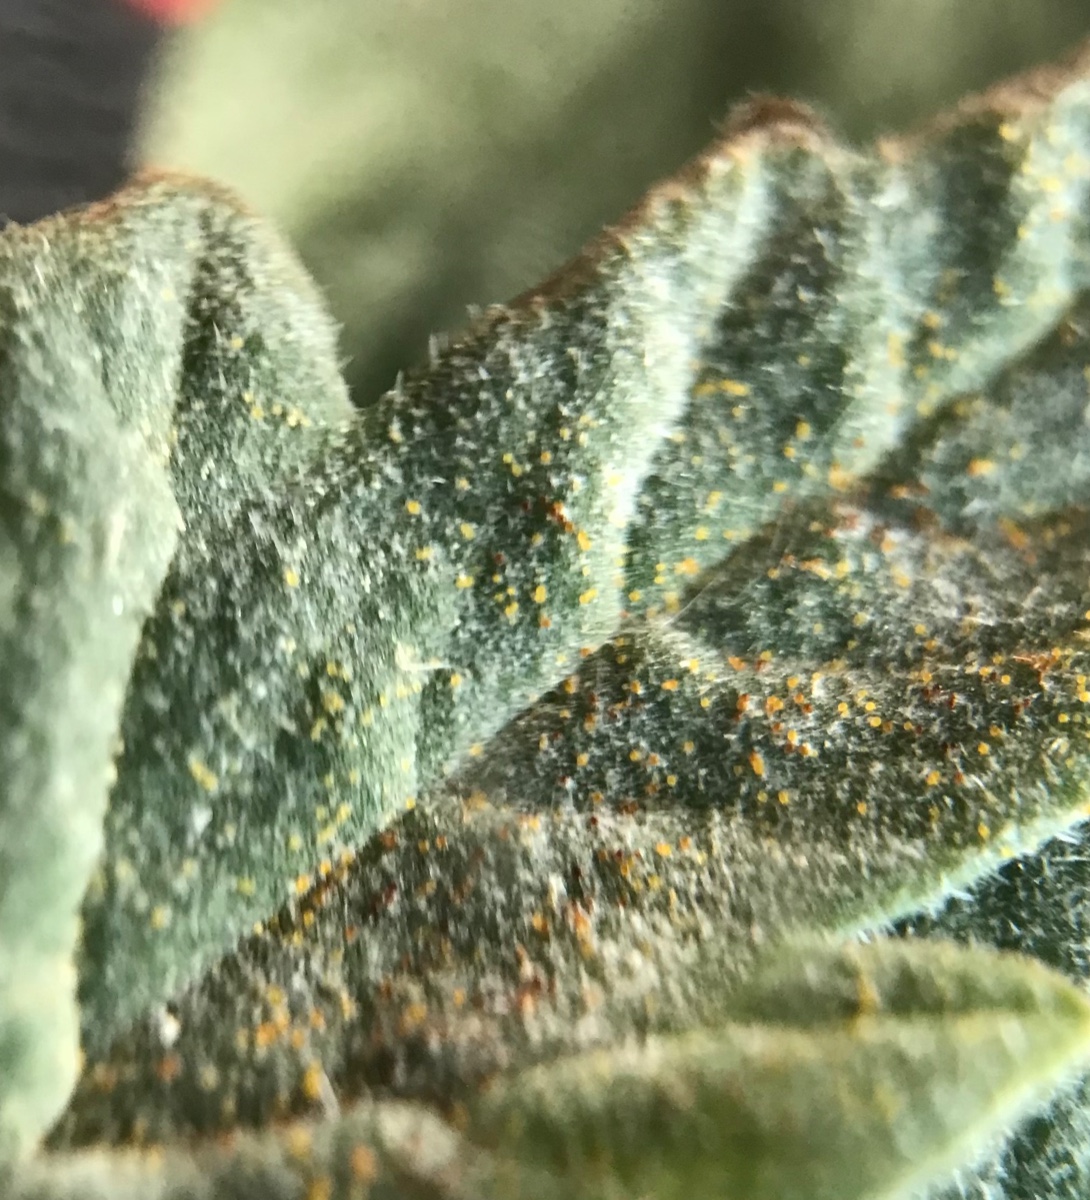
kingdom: Fungi
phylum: Ascomycota
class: Leotiomycetes
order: Helotiales
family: Erysiphaceae
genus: Erysiphe
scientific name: Erysiphe heraclei
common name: skærmplante-meldug
